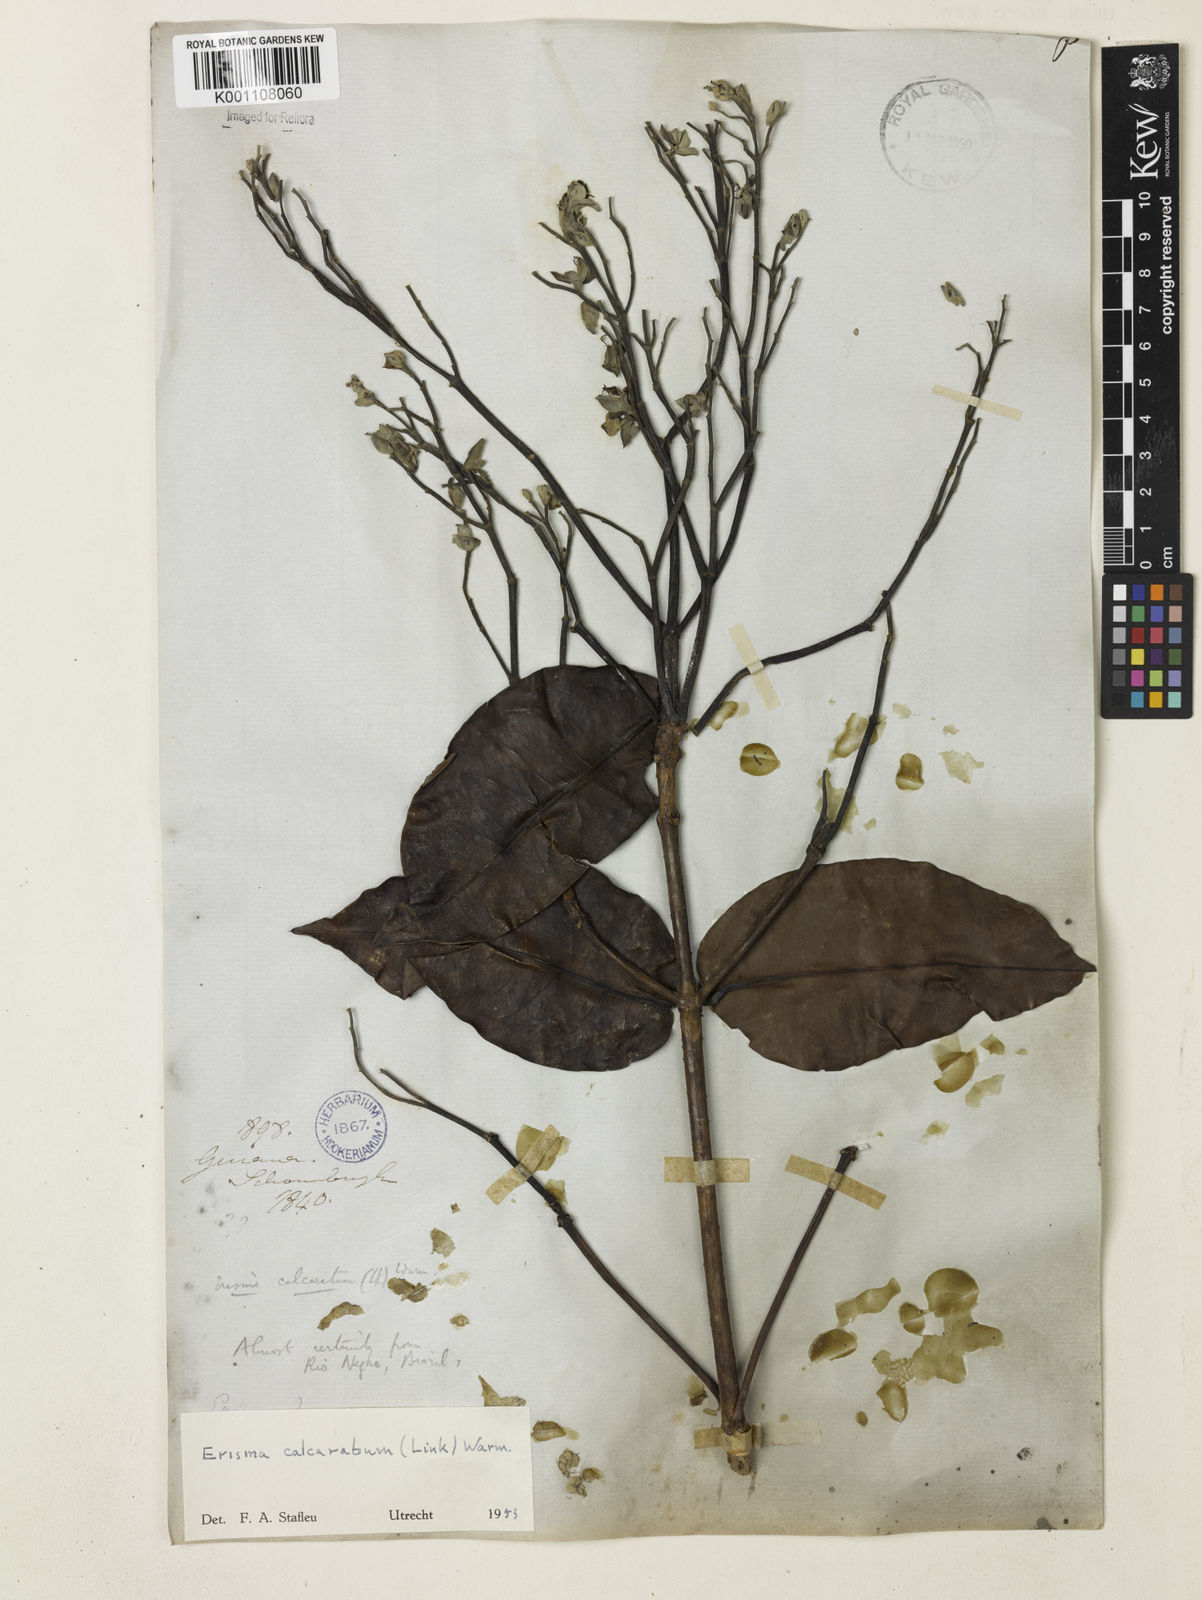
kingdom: Plantae
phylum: Tracheophyta
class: Magnoliopsida
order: Myrtales
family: Vochysiaceae
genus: Erisma
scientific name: Erisma calcaratum
